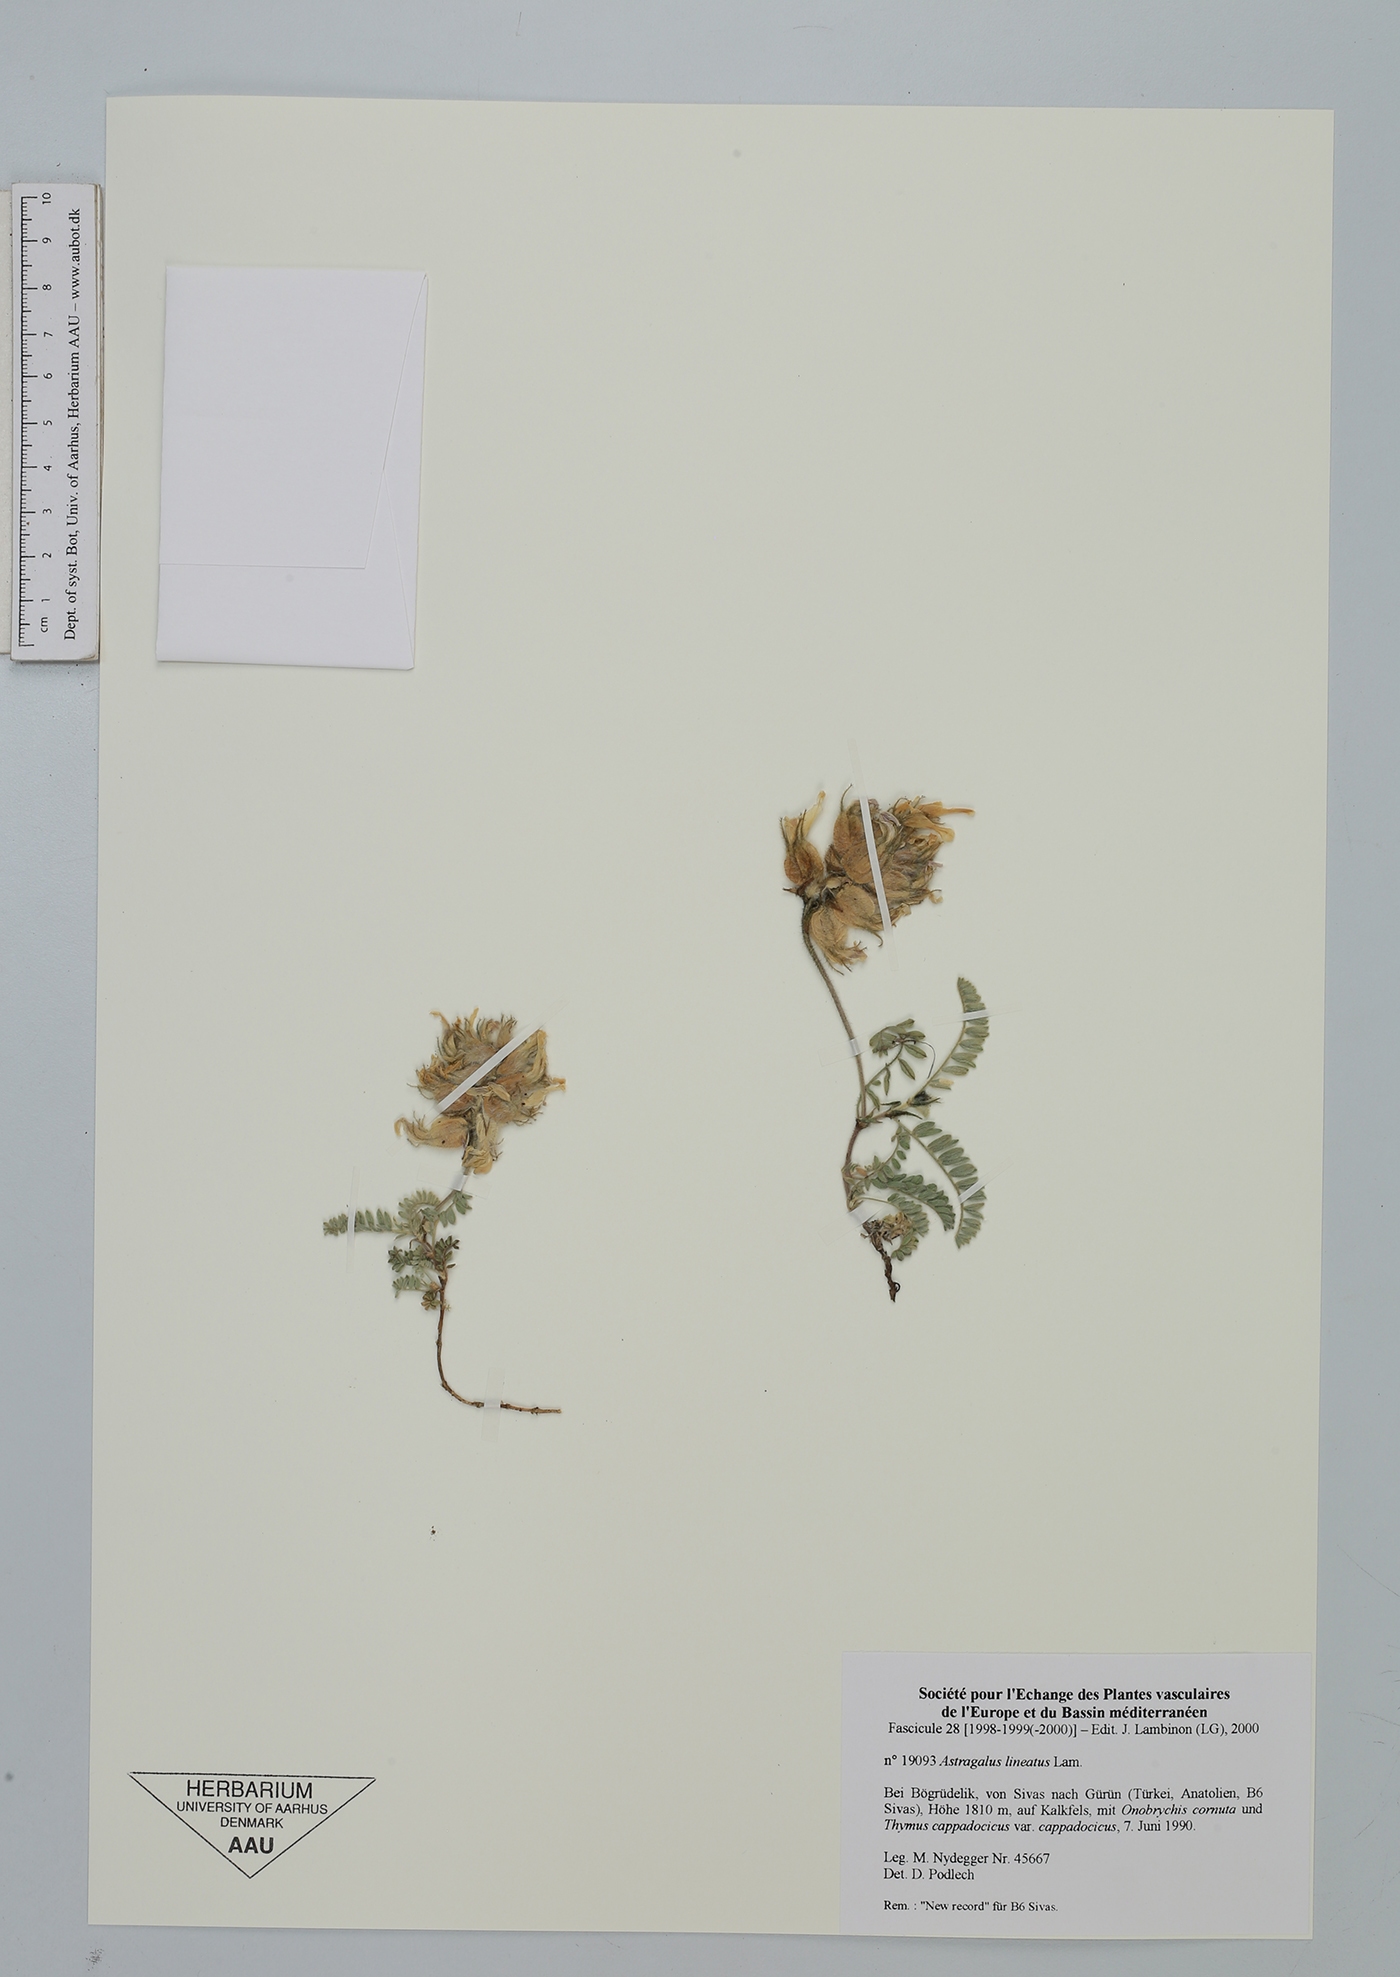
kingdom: Plantae
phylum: Tracheophyta
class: Magnoliopsida
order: Fabales
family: Fabaceae
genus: Astragalus
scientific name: Astragalus lineatus
